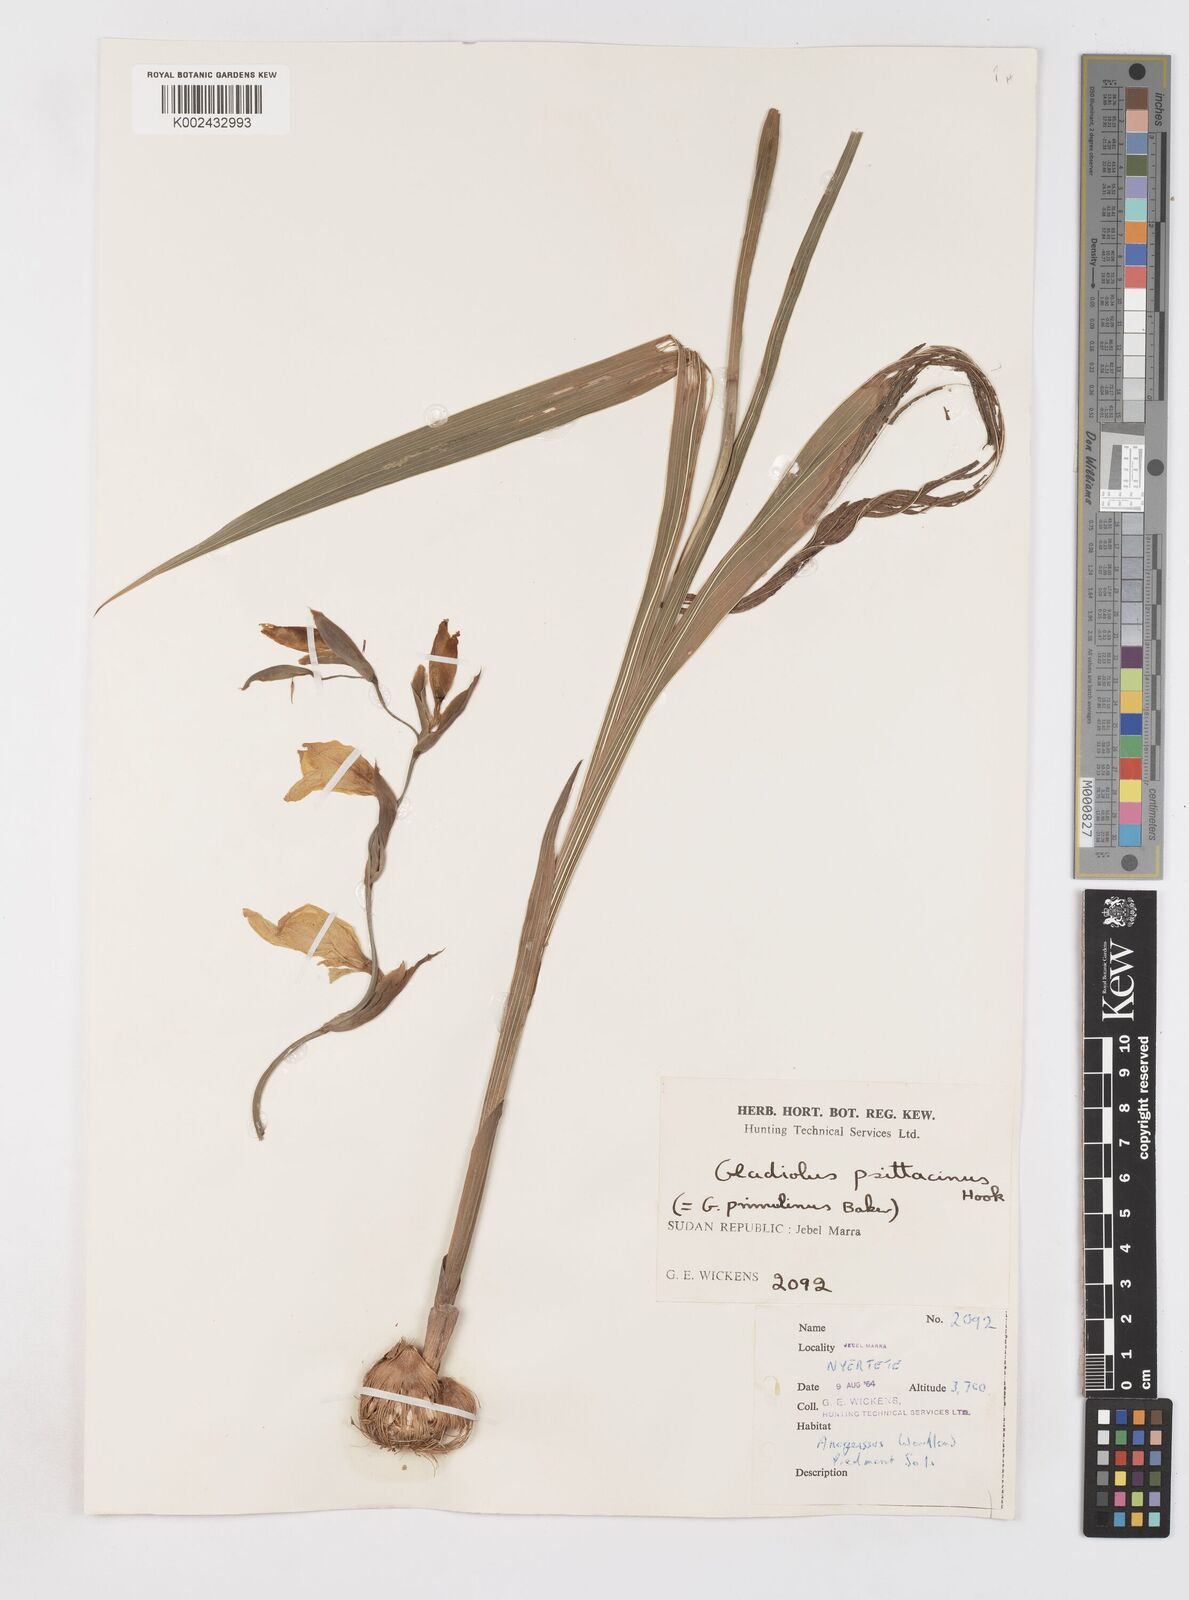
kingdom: Plantae
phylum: Tracheophyta
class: Liliopsida
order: Asparagales
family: Iridaceae
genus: Gladiolus
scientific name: Gladiolus dalenii
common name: Cornflag
